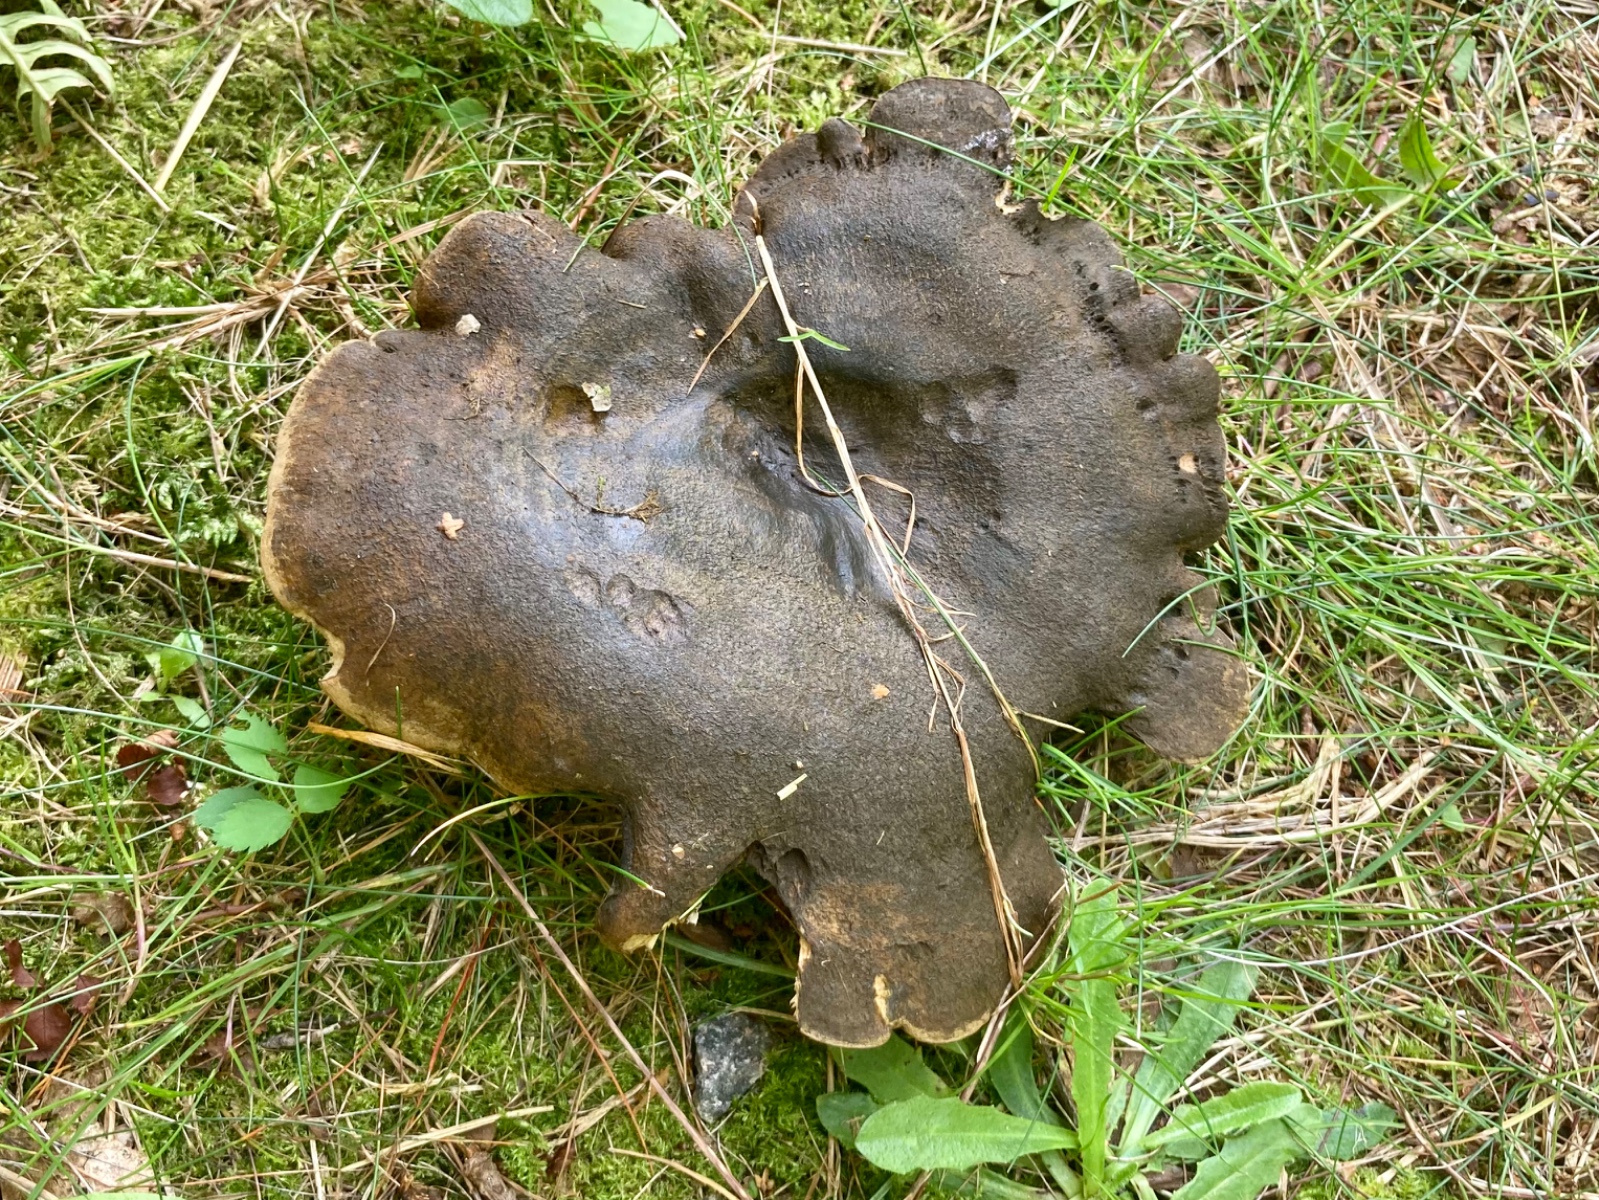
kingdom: Fungi
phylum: Basidiomycota
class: Agaricomycetes
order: Russulales
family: Russulaceae
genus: Lactarius
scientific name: Lactarius necator
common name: manddraber-mælkehat
